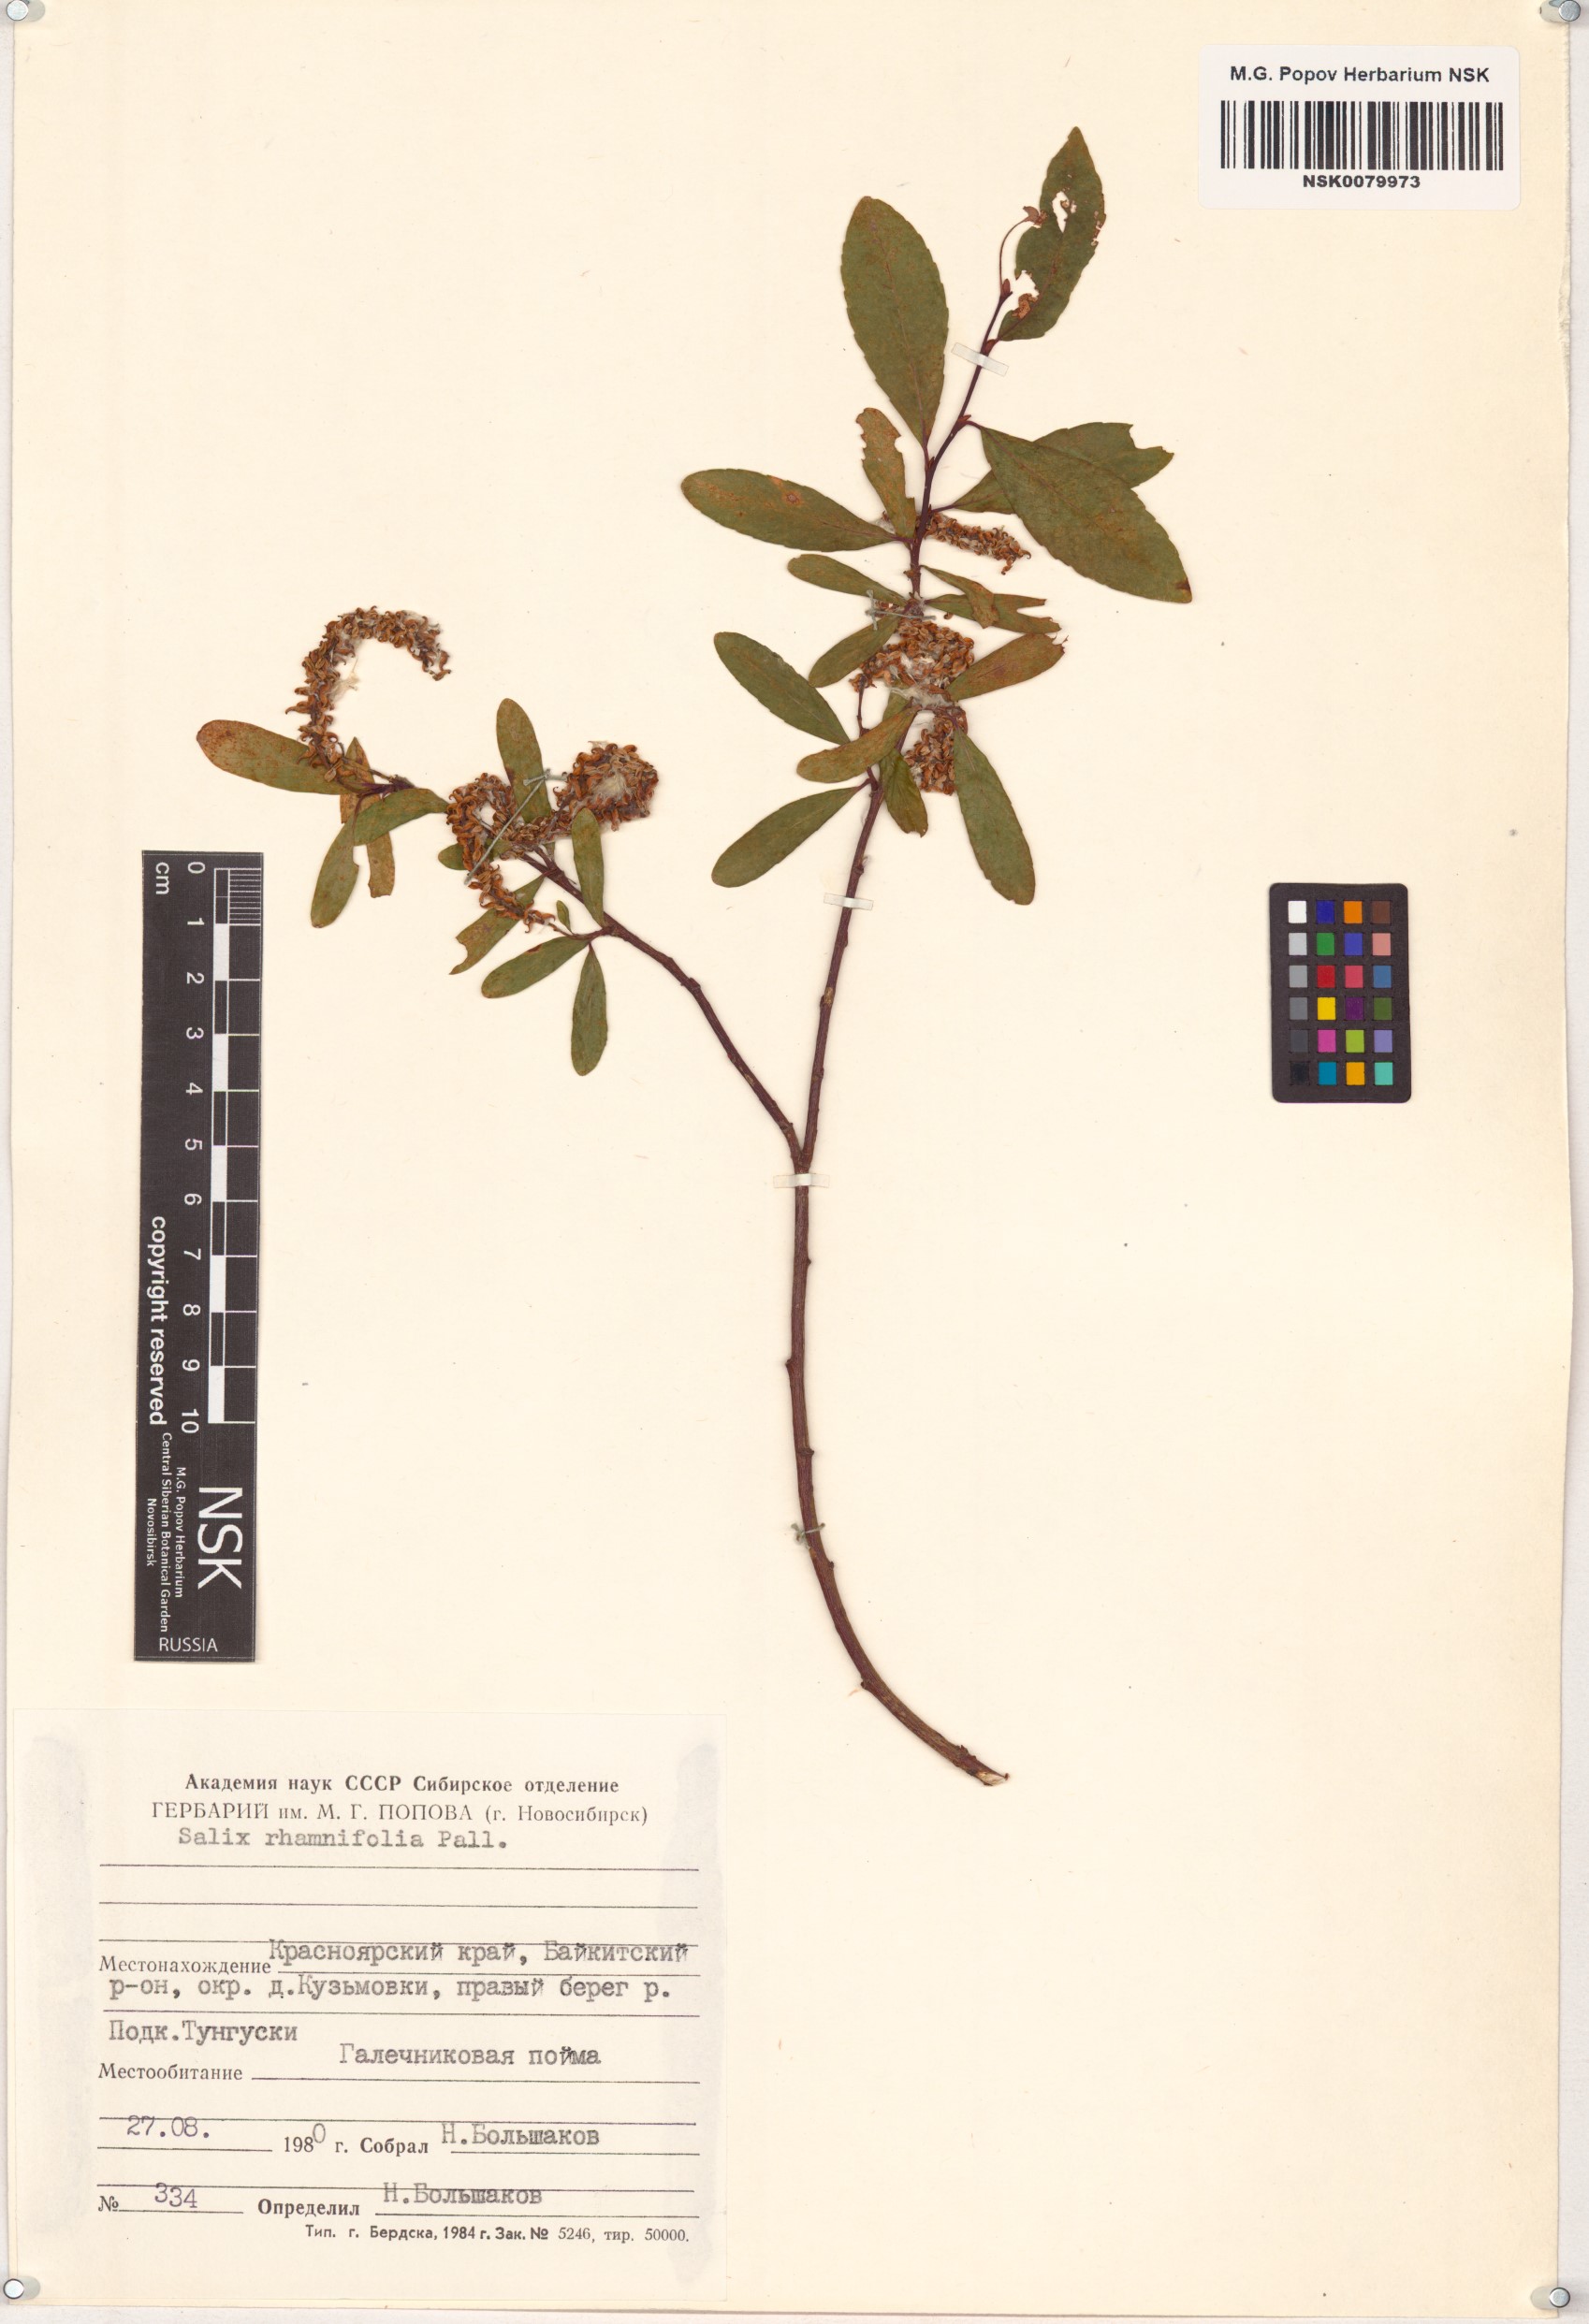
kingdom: Plantae
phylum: Tracheophyta
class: Magnoliopsida
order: Malpighiales
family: Salicaceae
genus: Salix
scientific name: Salix rhamnifolia
